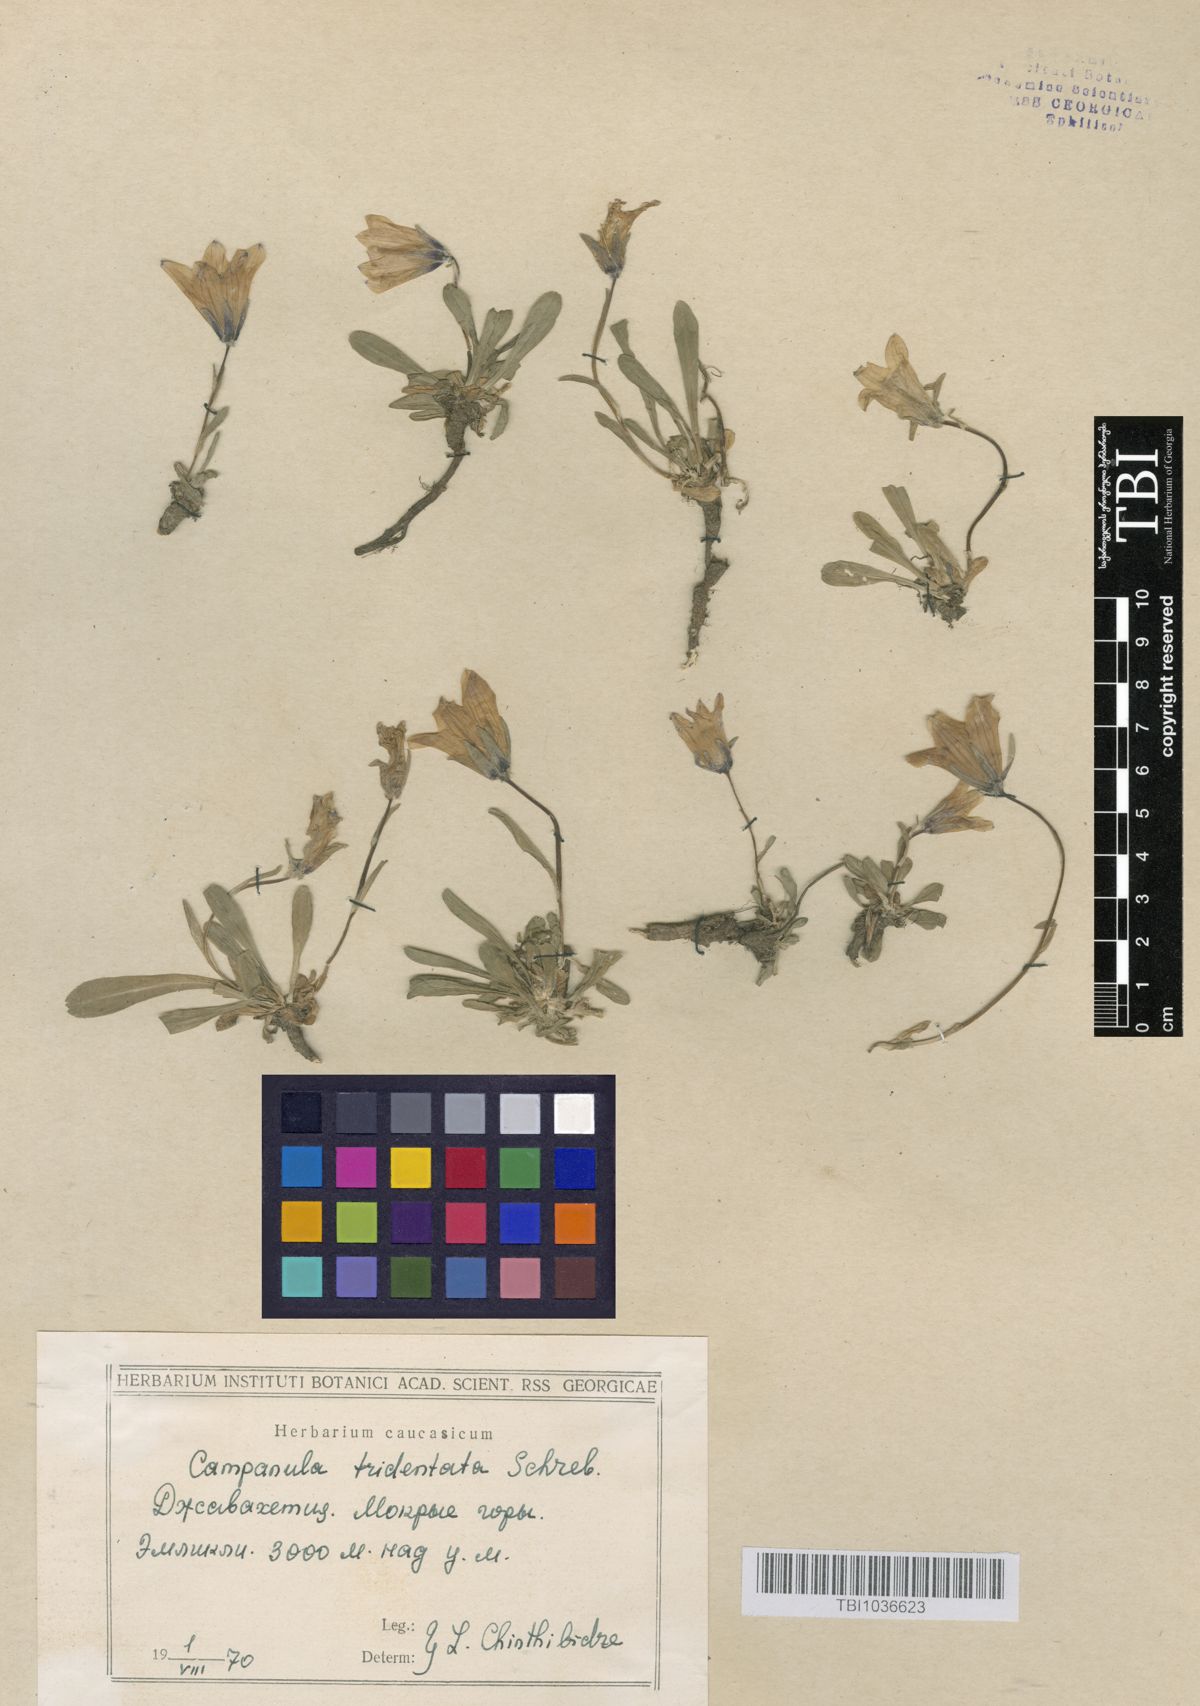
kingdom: Plantae
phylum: Tracheophyta
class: Magnoliopsida
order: Asterales
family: Campanulaceae
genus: Campanula
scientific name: Campanula tridentata
